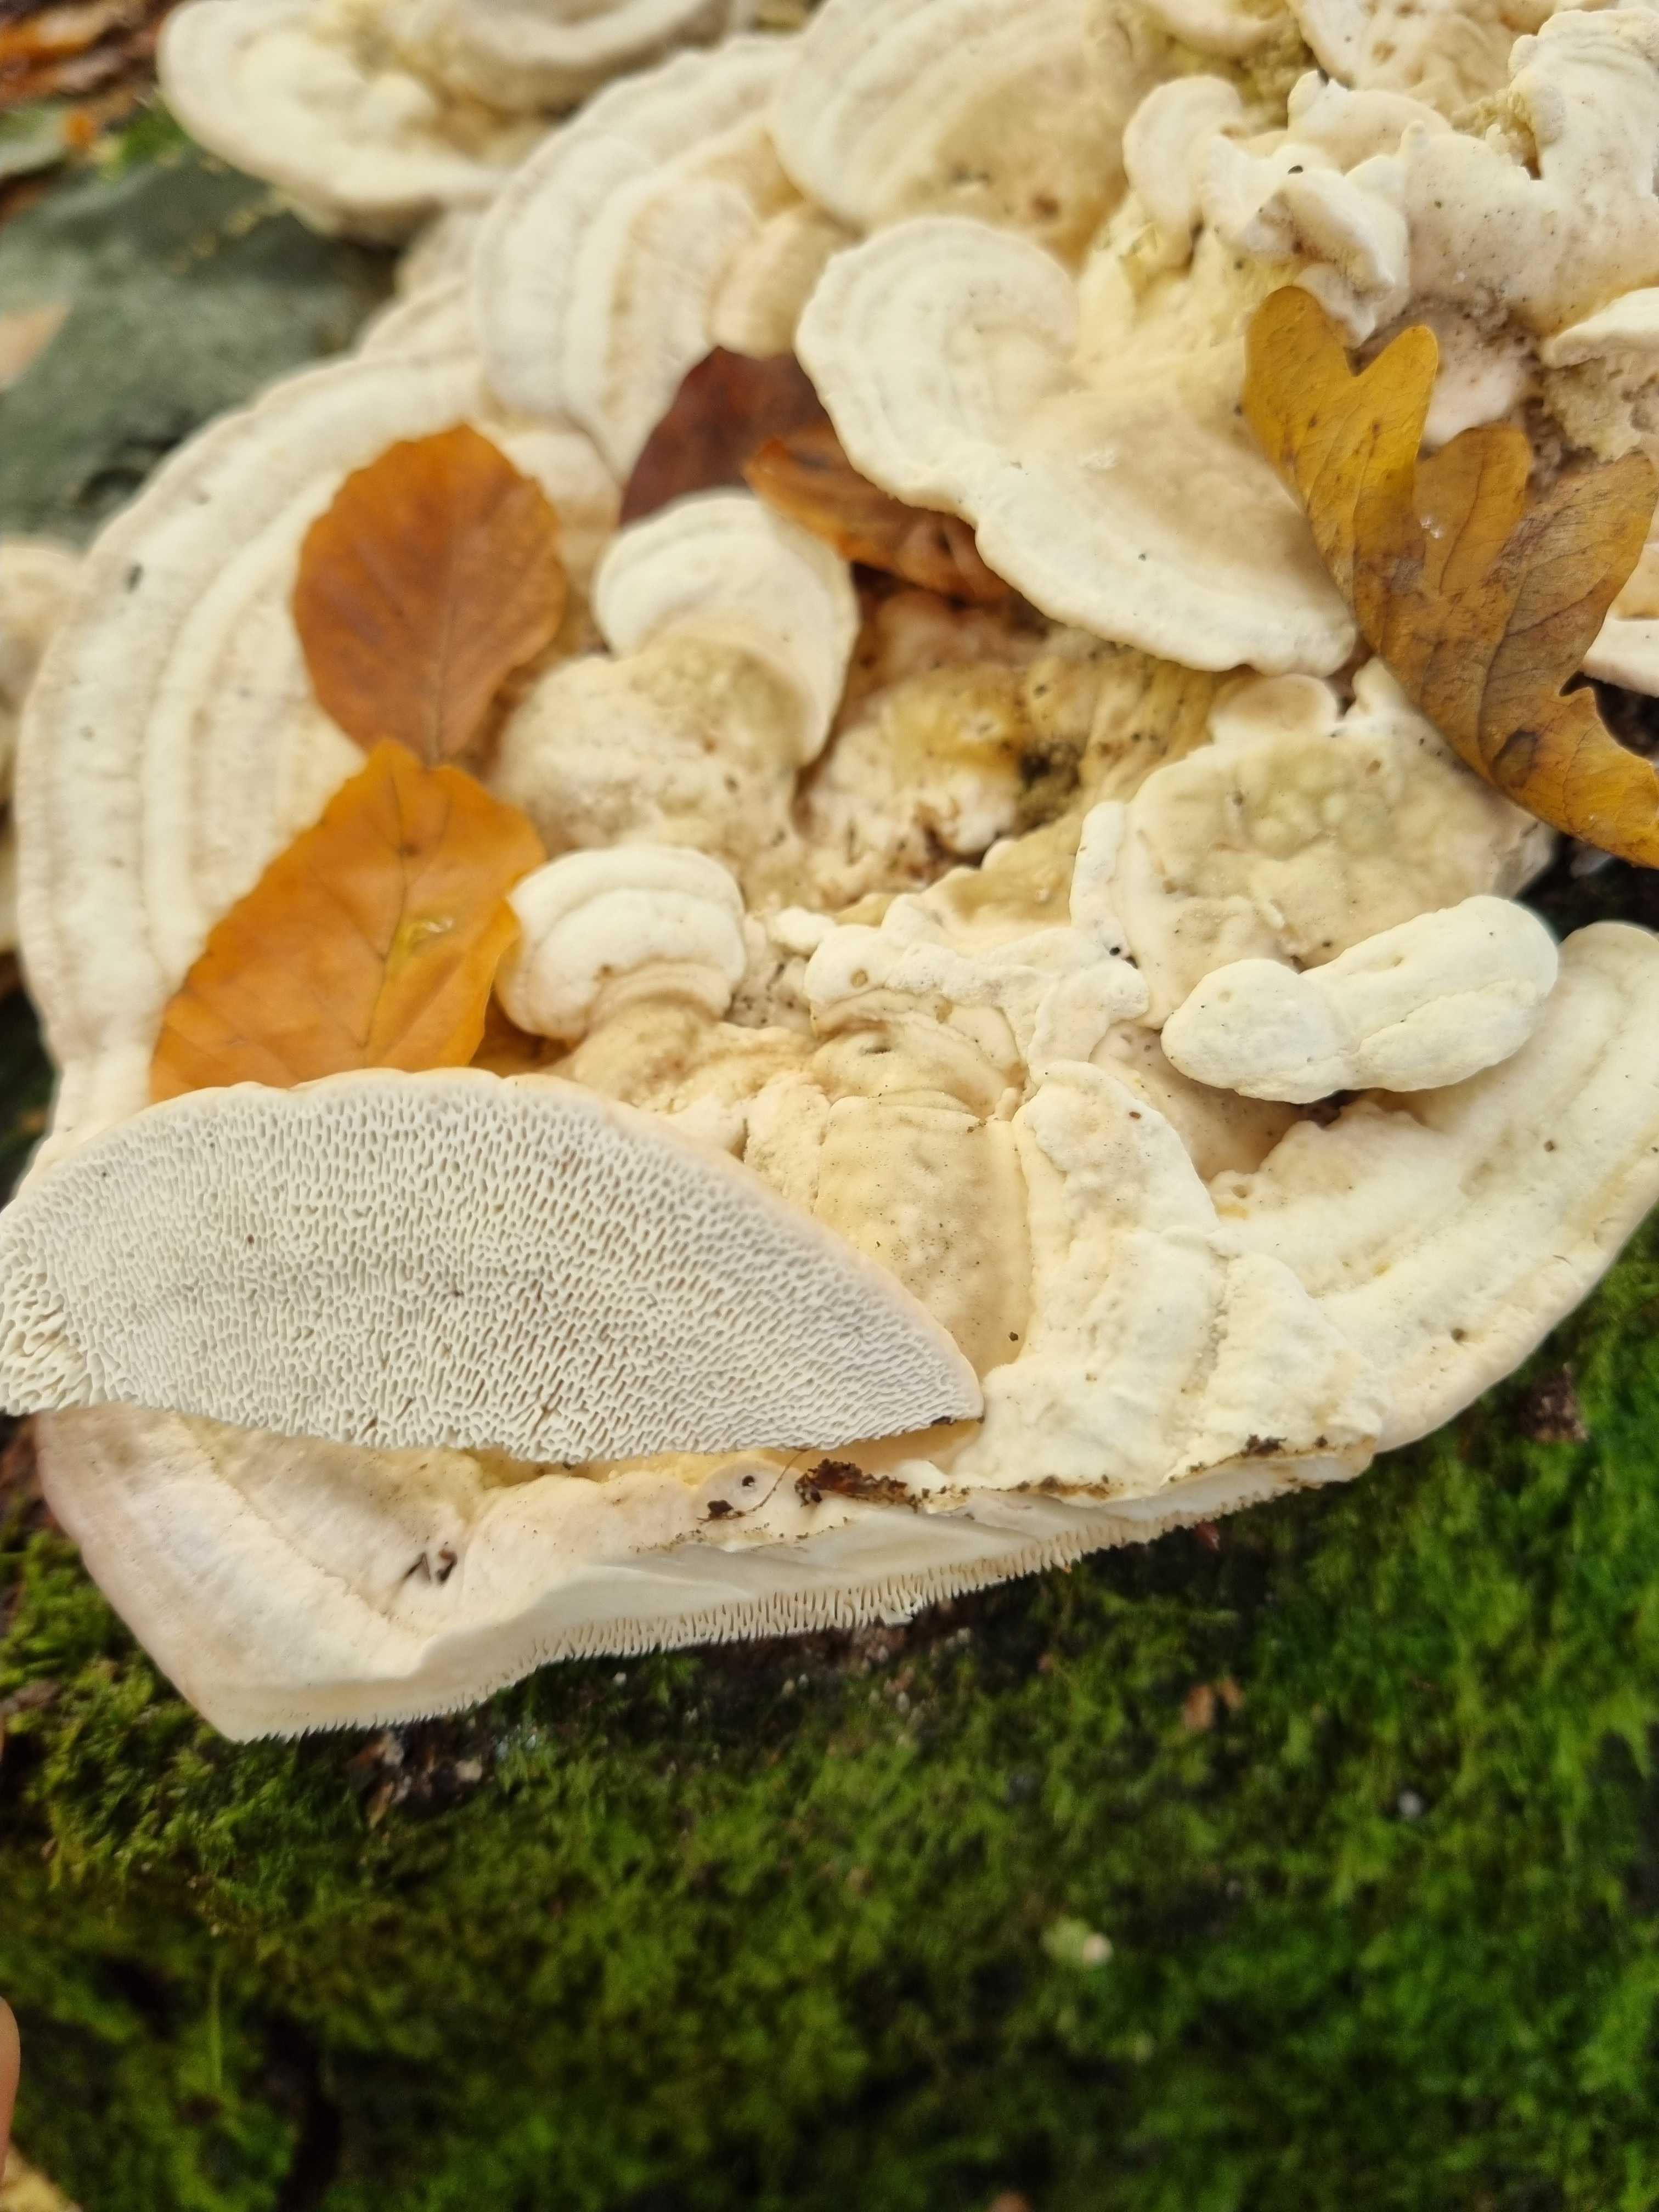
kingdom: Fungi
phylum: Basidiomycota
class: Agaricomycetes
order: Polyporales
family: Polyporaceae
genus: Trametes
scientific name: Trametes gibbosa
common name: puklet læderporesvamp
